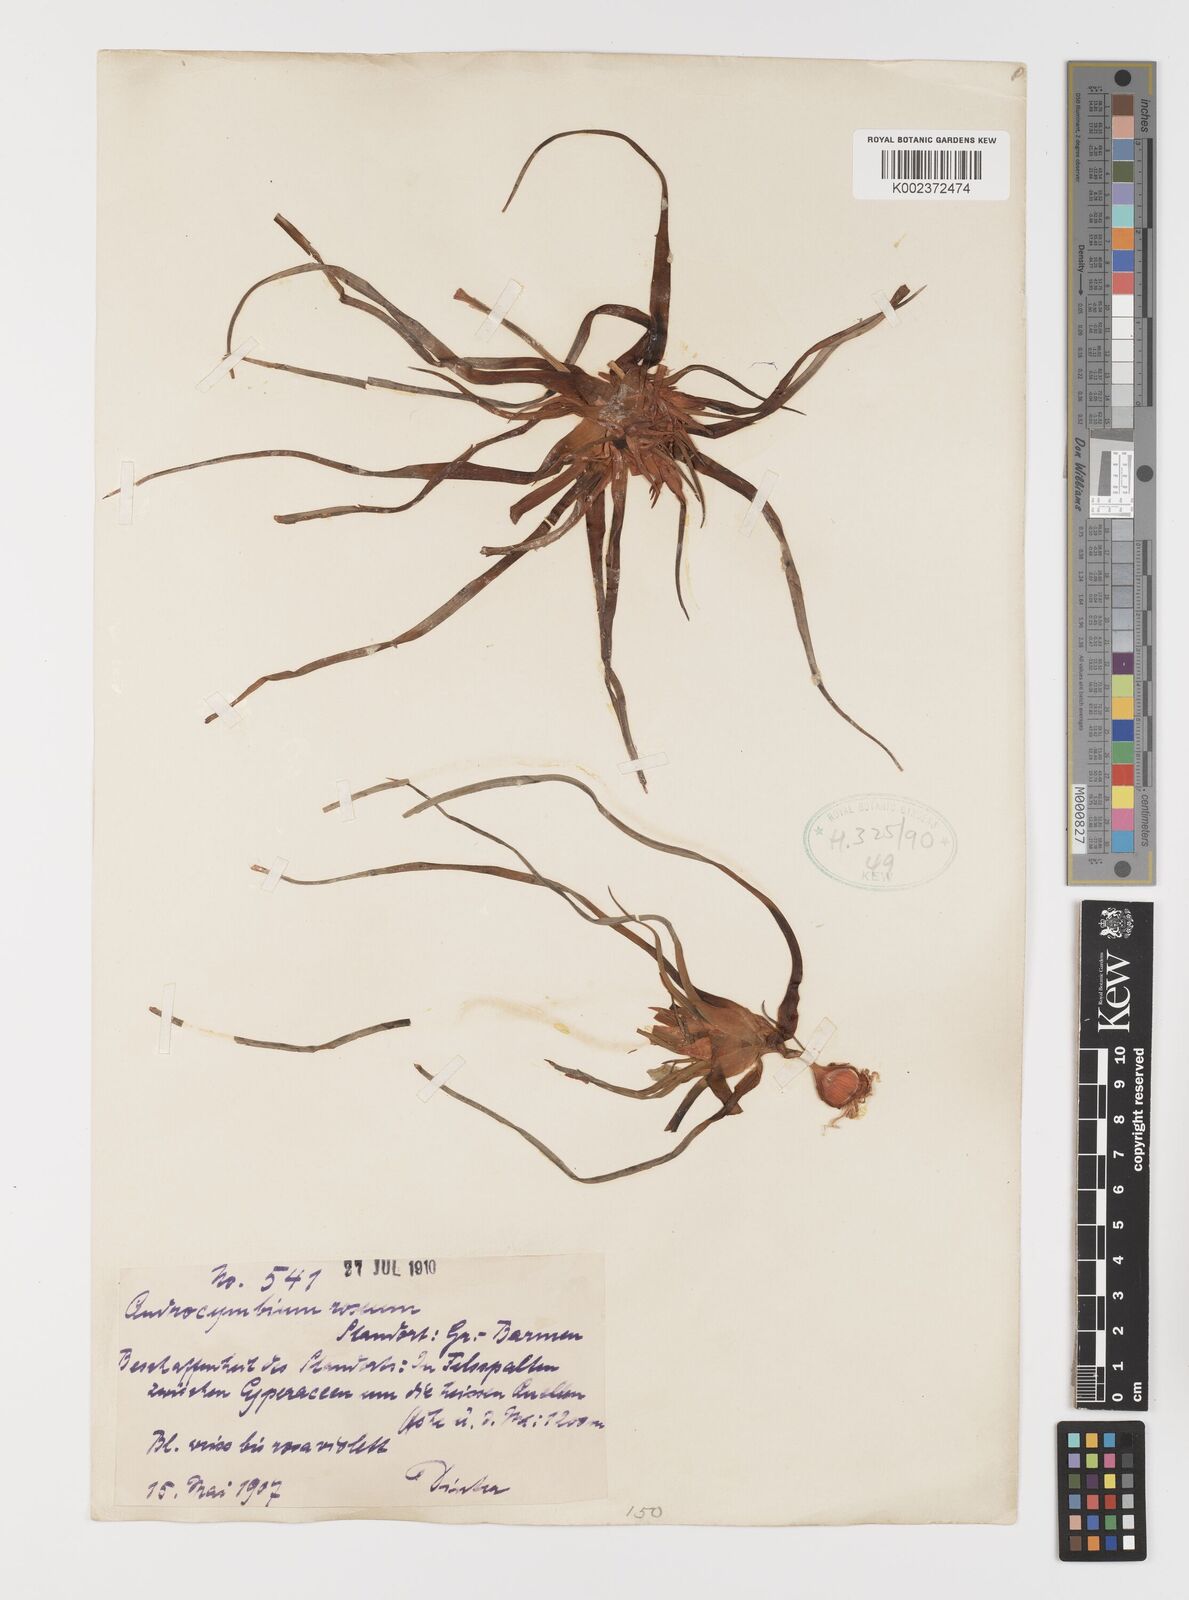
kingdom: Plantae
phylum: Tracheophyta
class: Liliopsida
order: Liliales
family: Colchicaceae
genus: Colchicum
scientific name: Colchicum roseum
